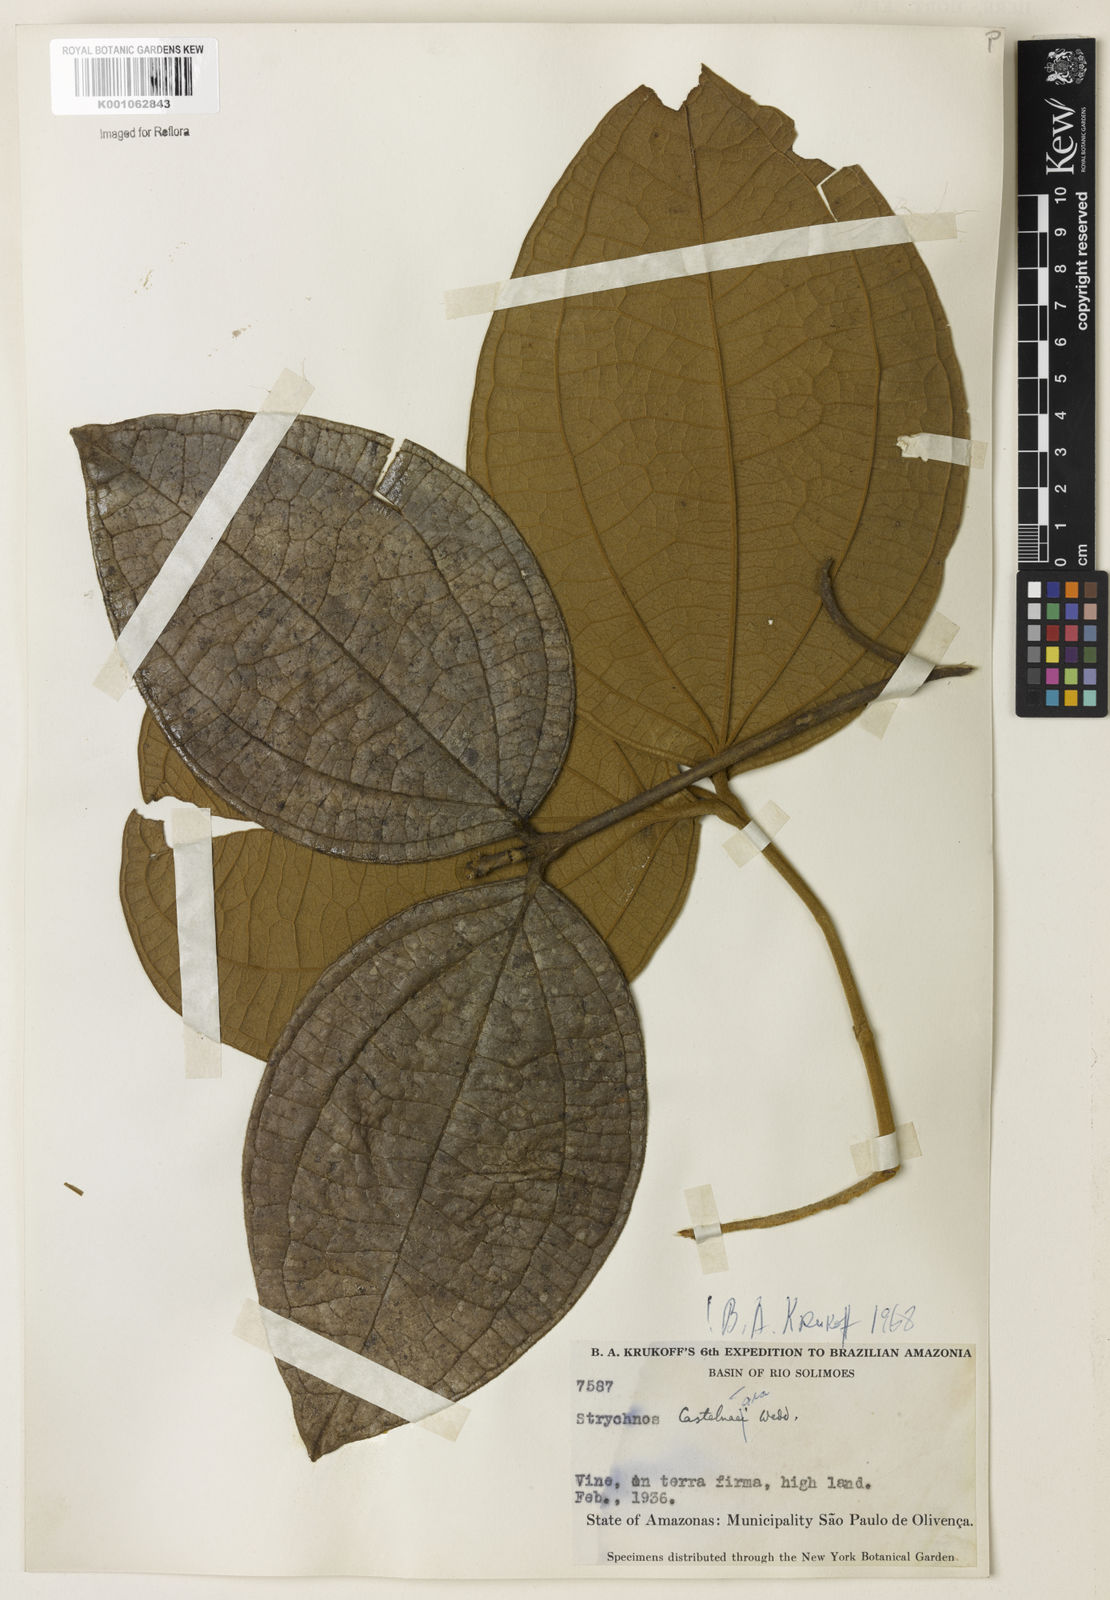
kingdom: Plantae
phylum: Tracheophyta
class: Magnoliopsida
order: Gentianales
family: Loganiaceae
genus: Strychnos
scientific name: Strychnos
